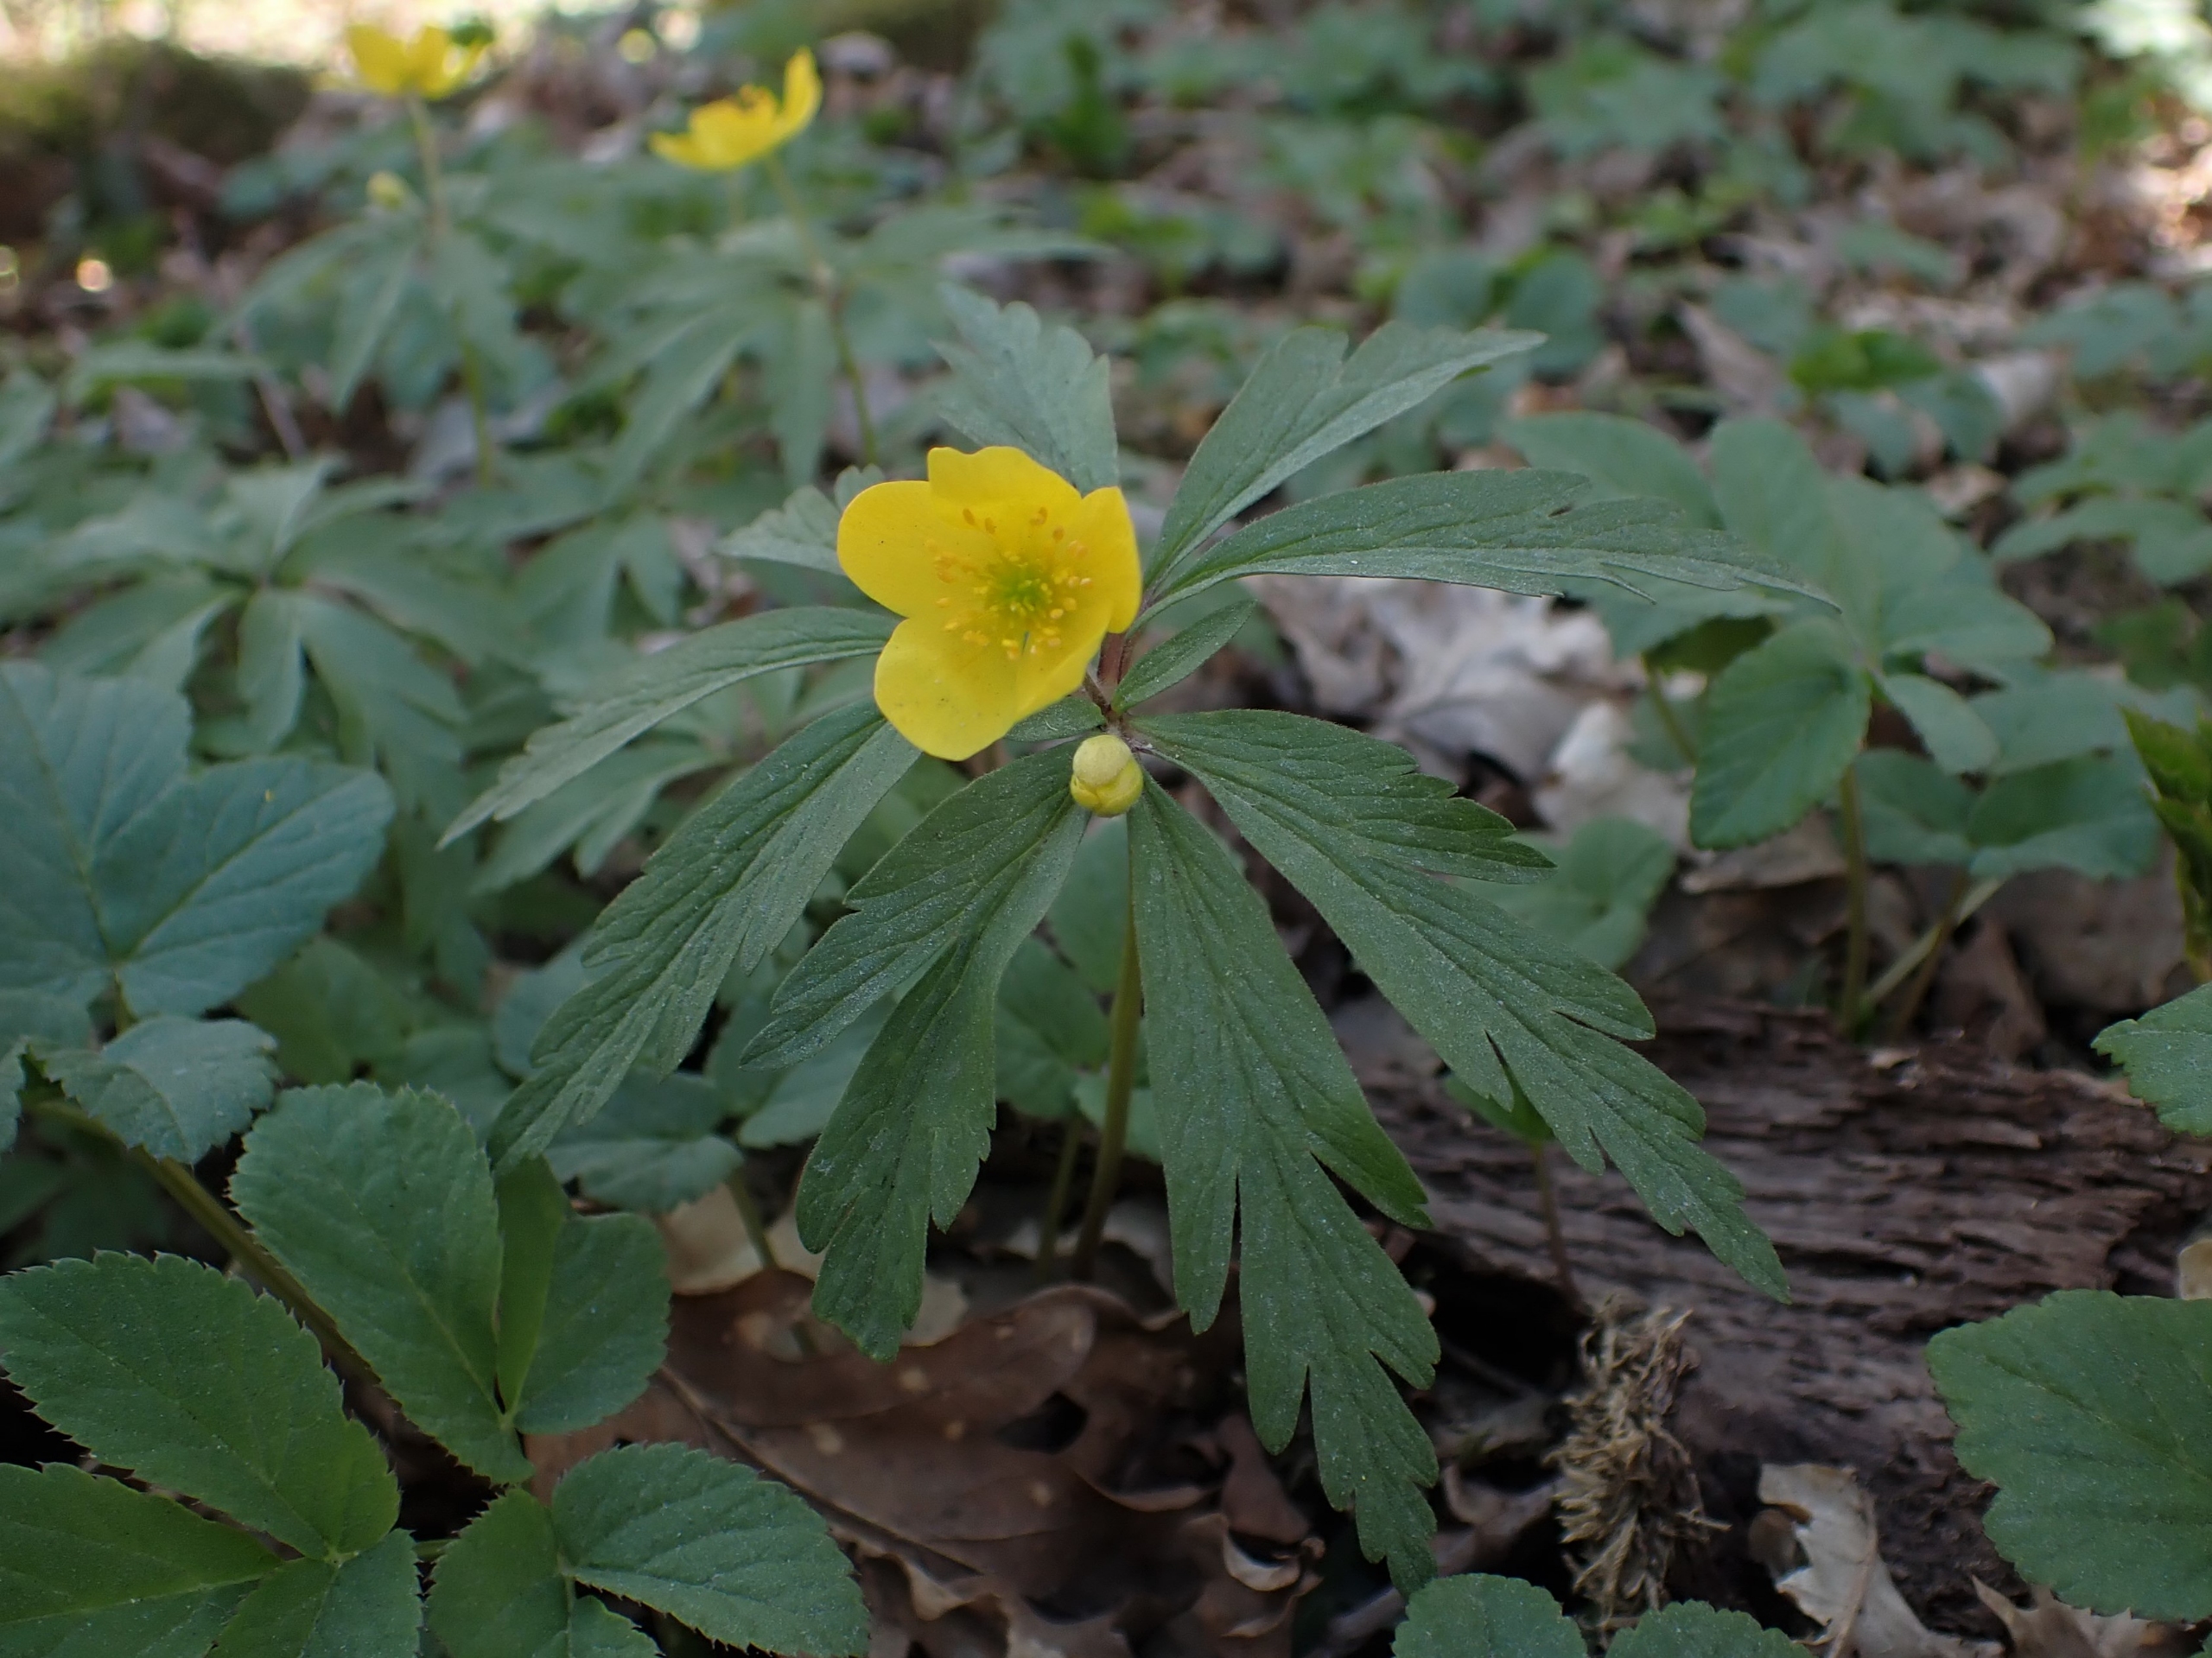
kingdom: Plantae
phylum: Tracheophyta
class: Magnoliopsida
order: Ranunculales
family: Ranunculaceae
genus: Anemone
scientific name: Anemone ranunculoides
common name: Gul anemone
